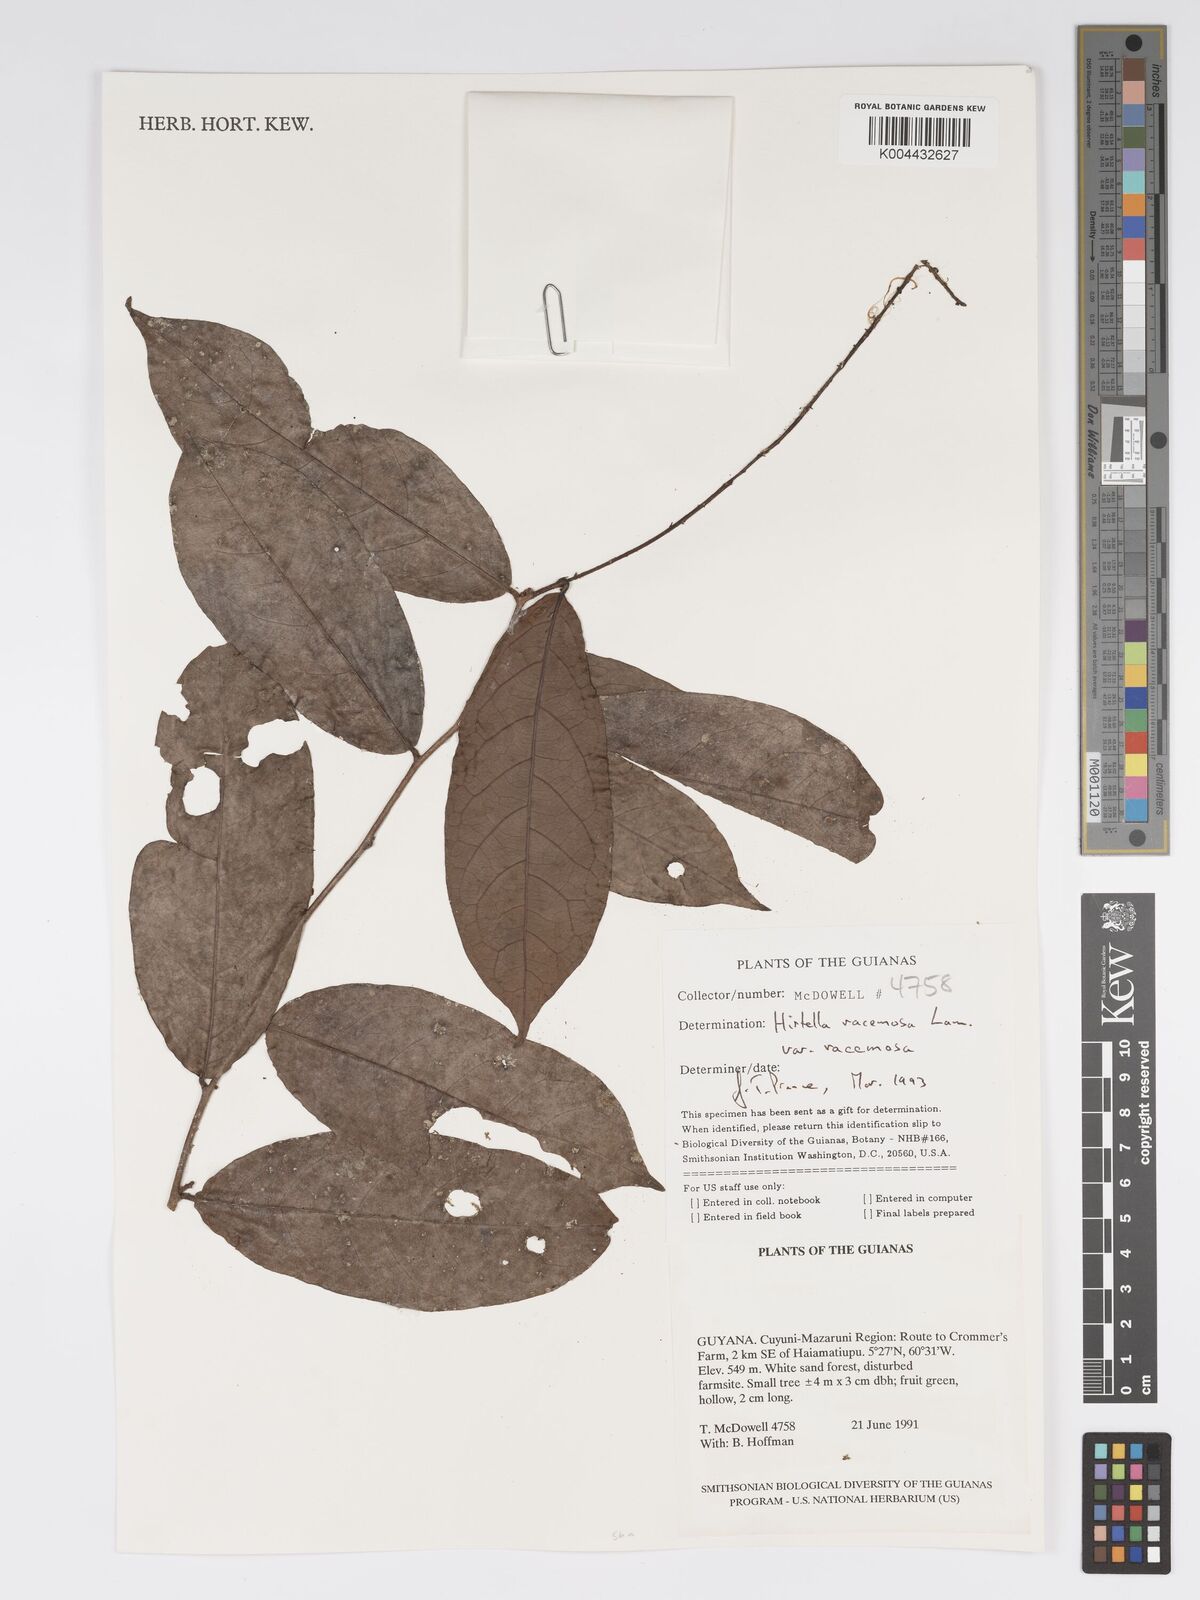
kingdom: Plantae
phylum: Tracheophyta
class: Magnoliopsida
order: Malpighiales
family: Chrysobalanaceae
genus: Hirtella
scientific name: Hirtella racemosa
